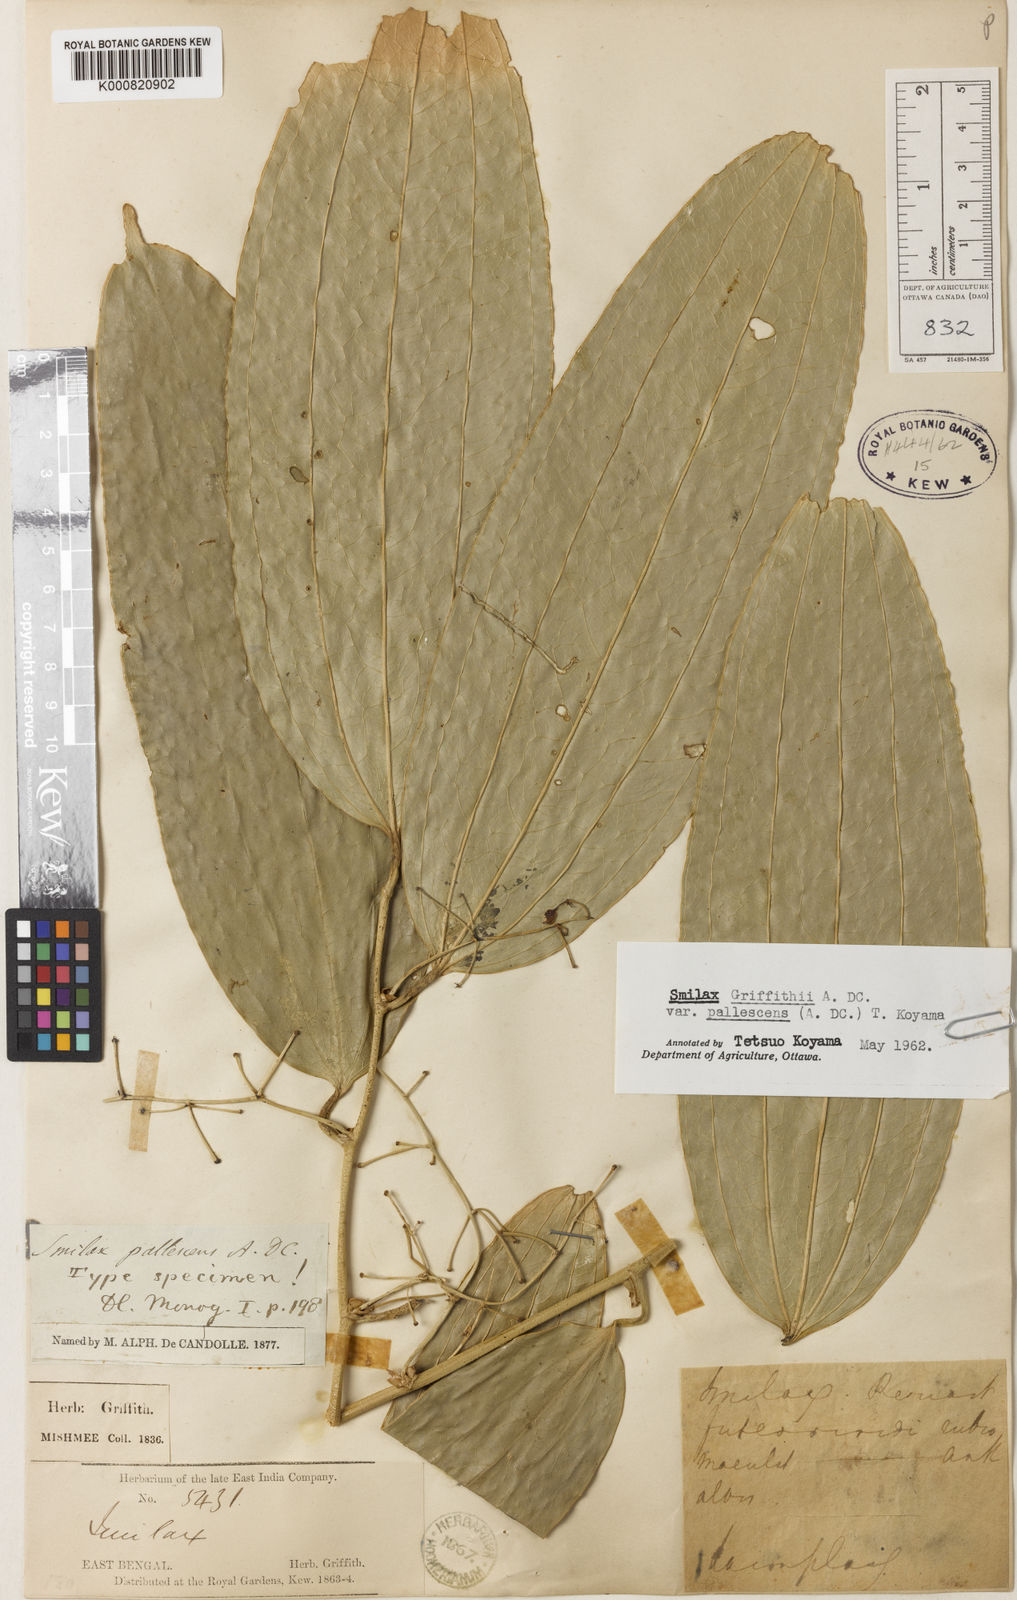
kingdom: Plantae
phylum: Tracheophyta
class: Liliopsida
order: Liliales
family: Smilacaceae
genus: Smilax
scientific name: Smilax griffithii
